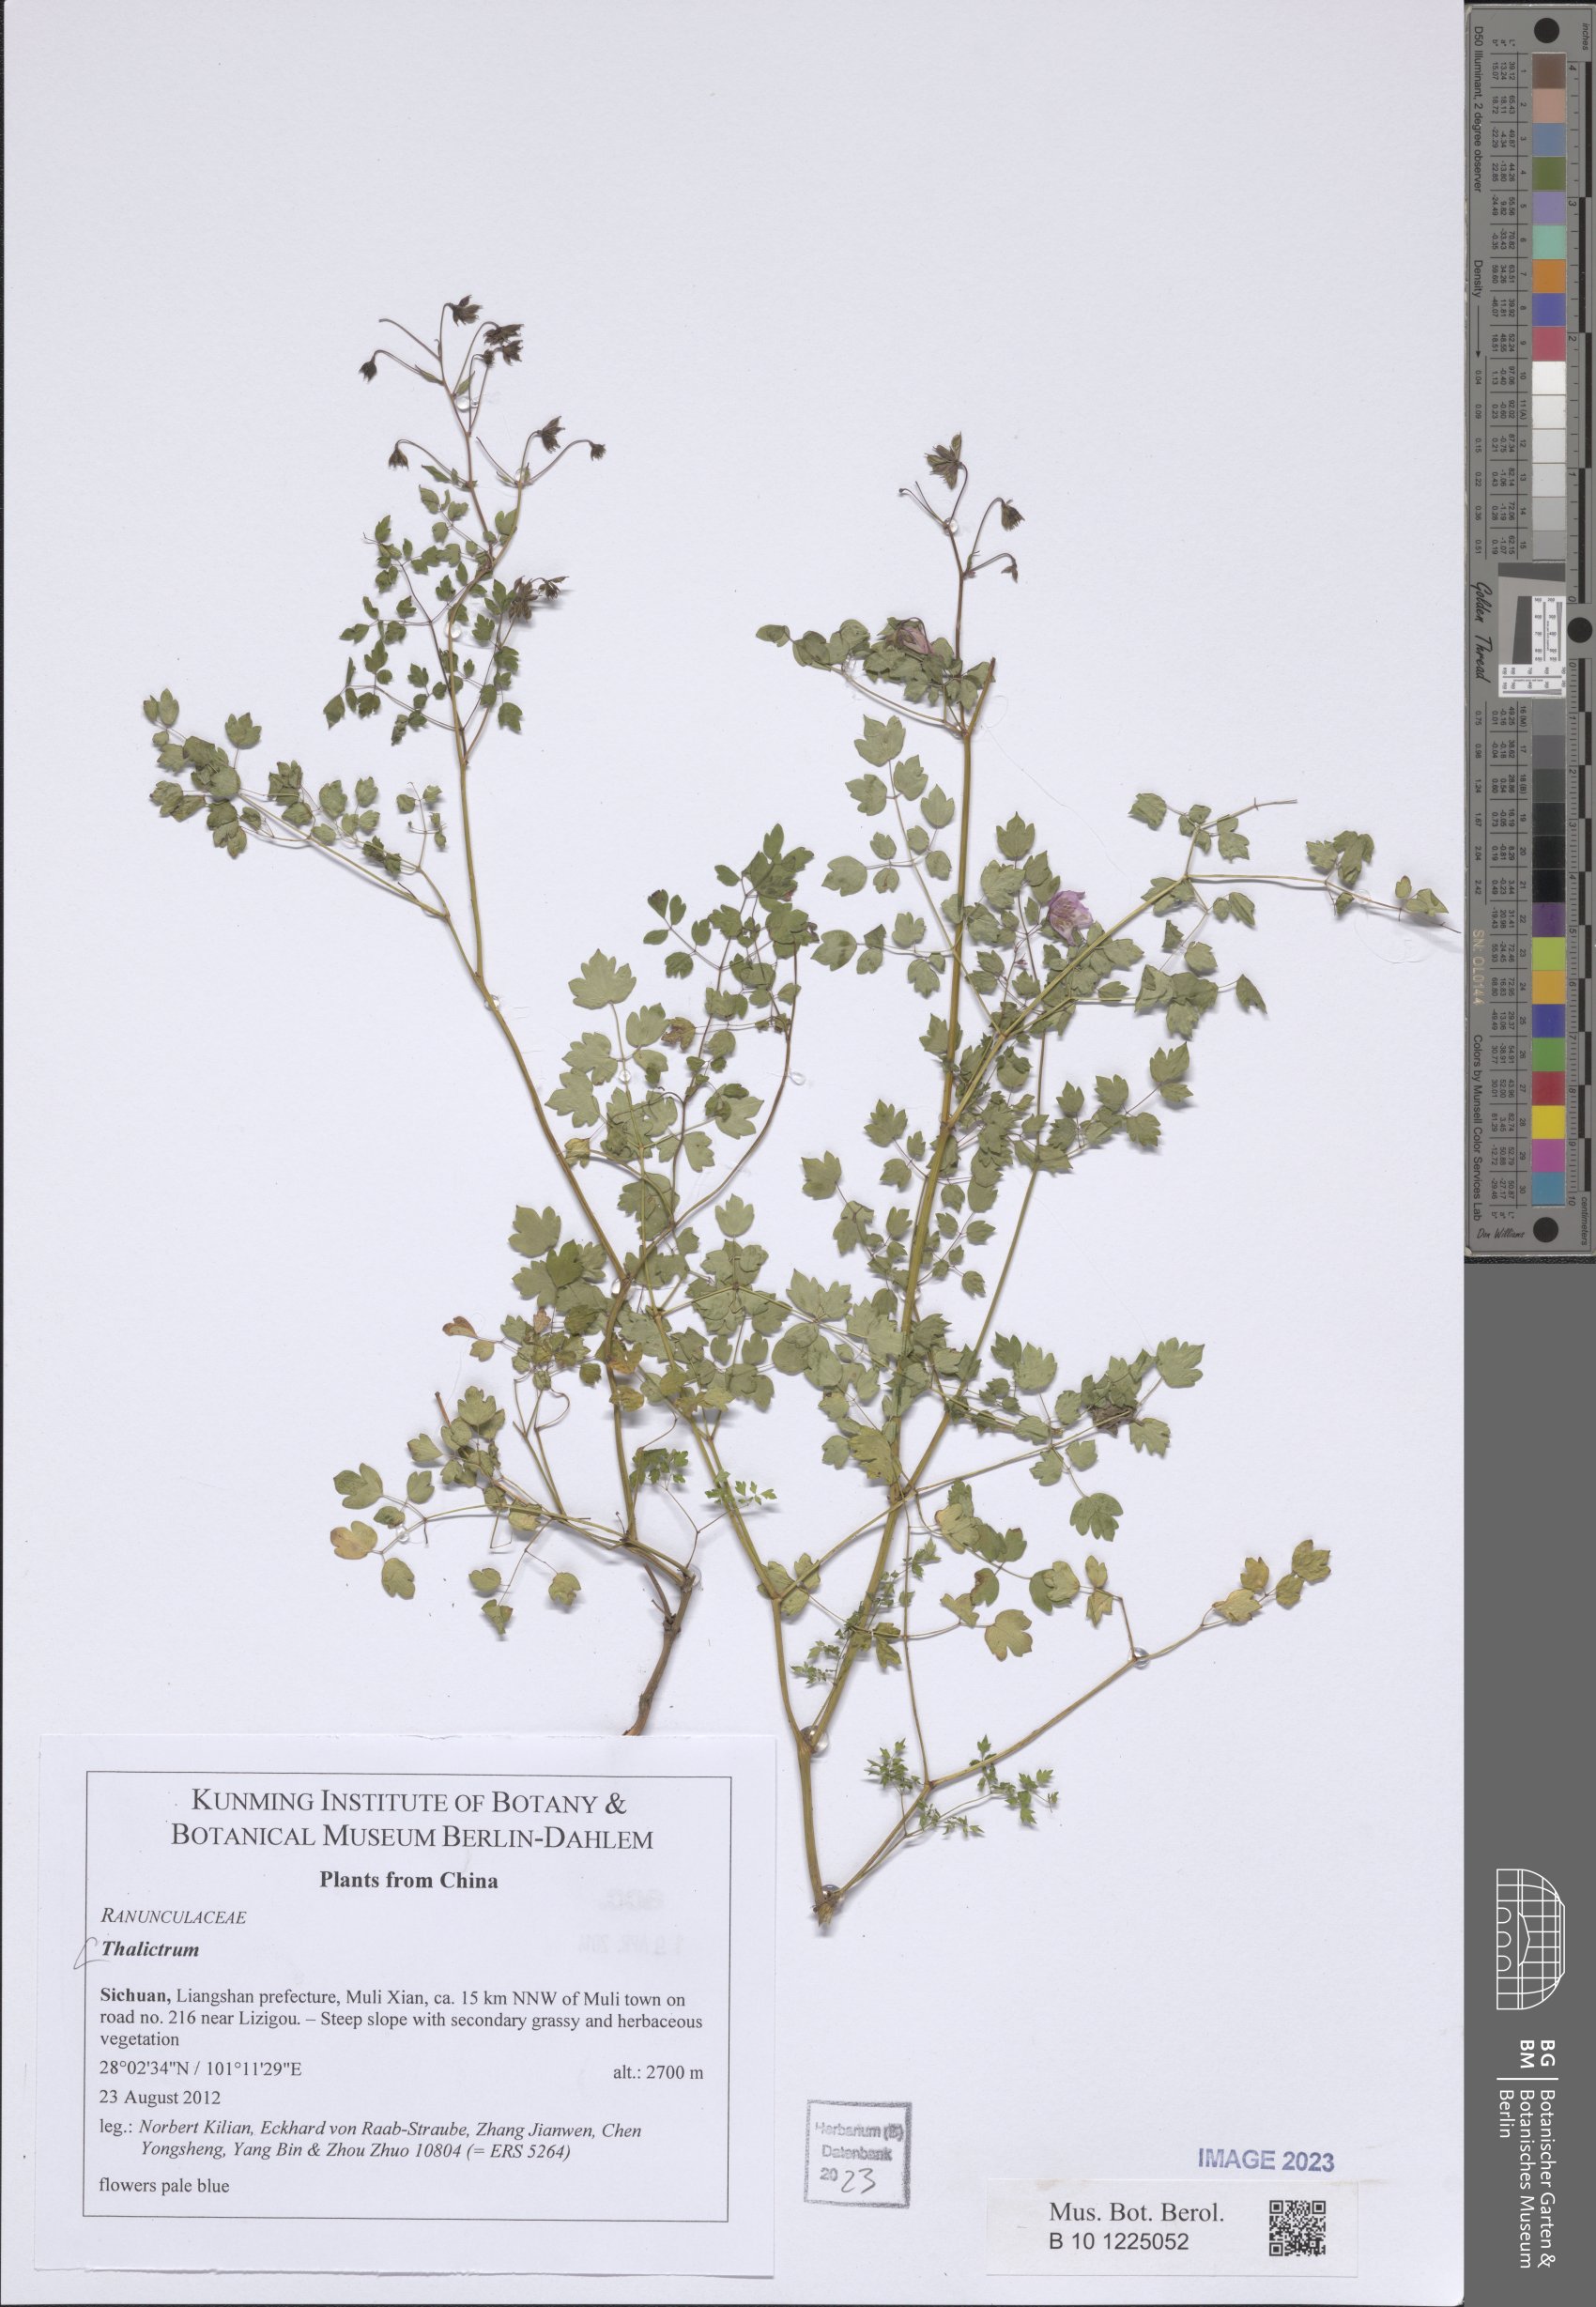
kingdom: Plantae
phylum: Tracheophyta
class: Magnoliopsida
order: Ranunculales
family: Ranunculaceae
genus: Thalictrum
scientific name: Thalictrum
